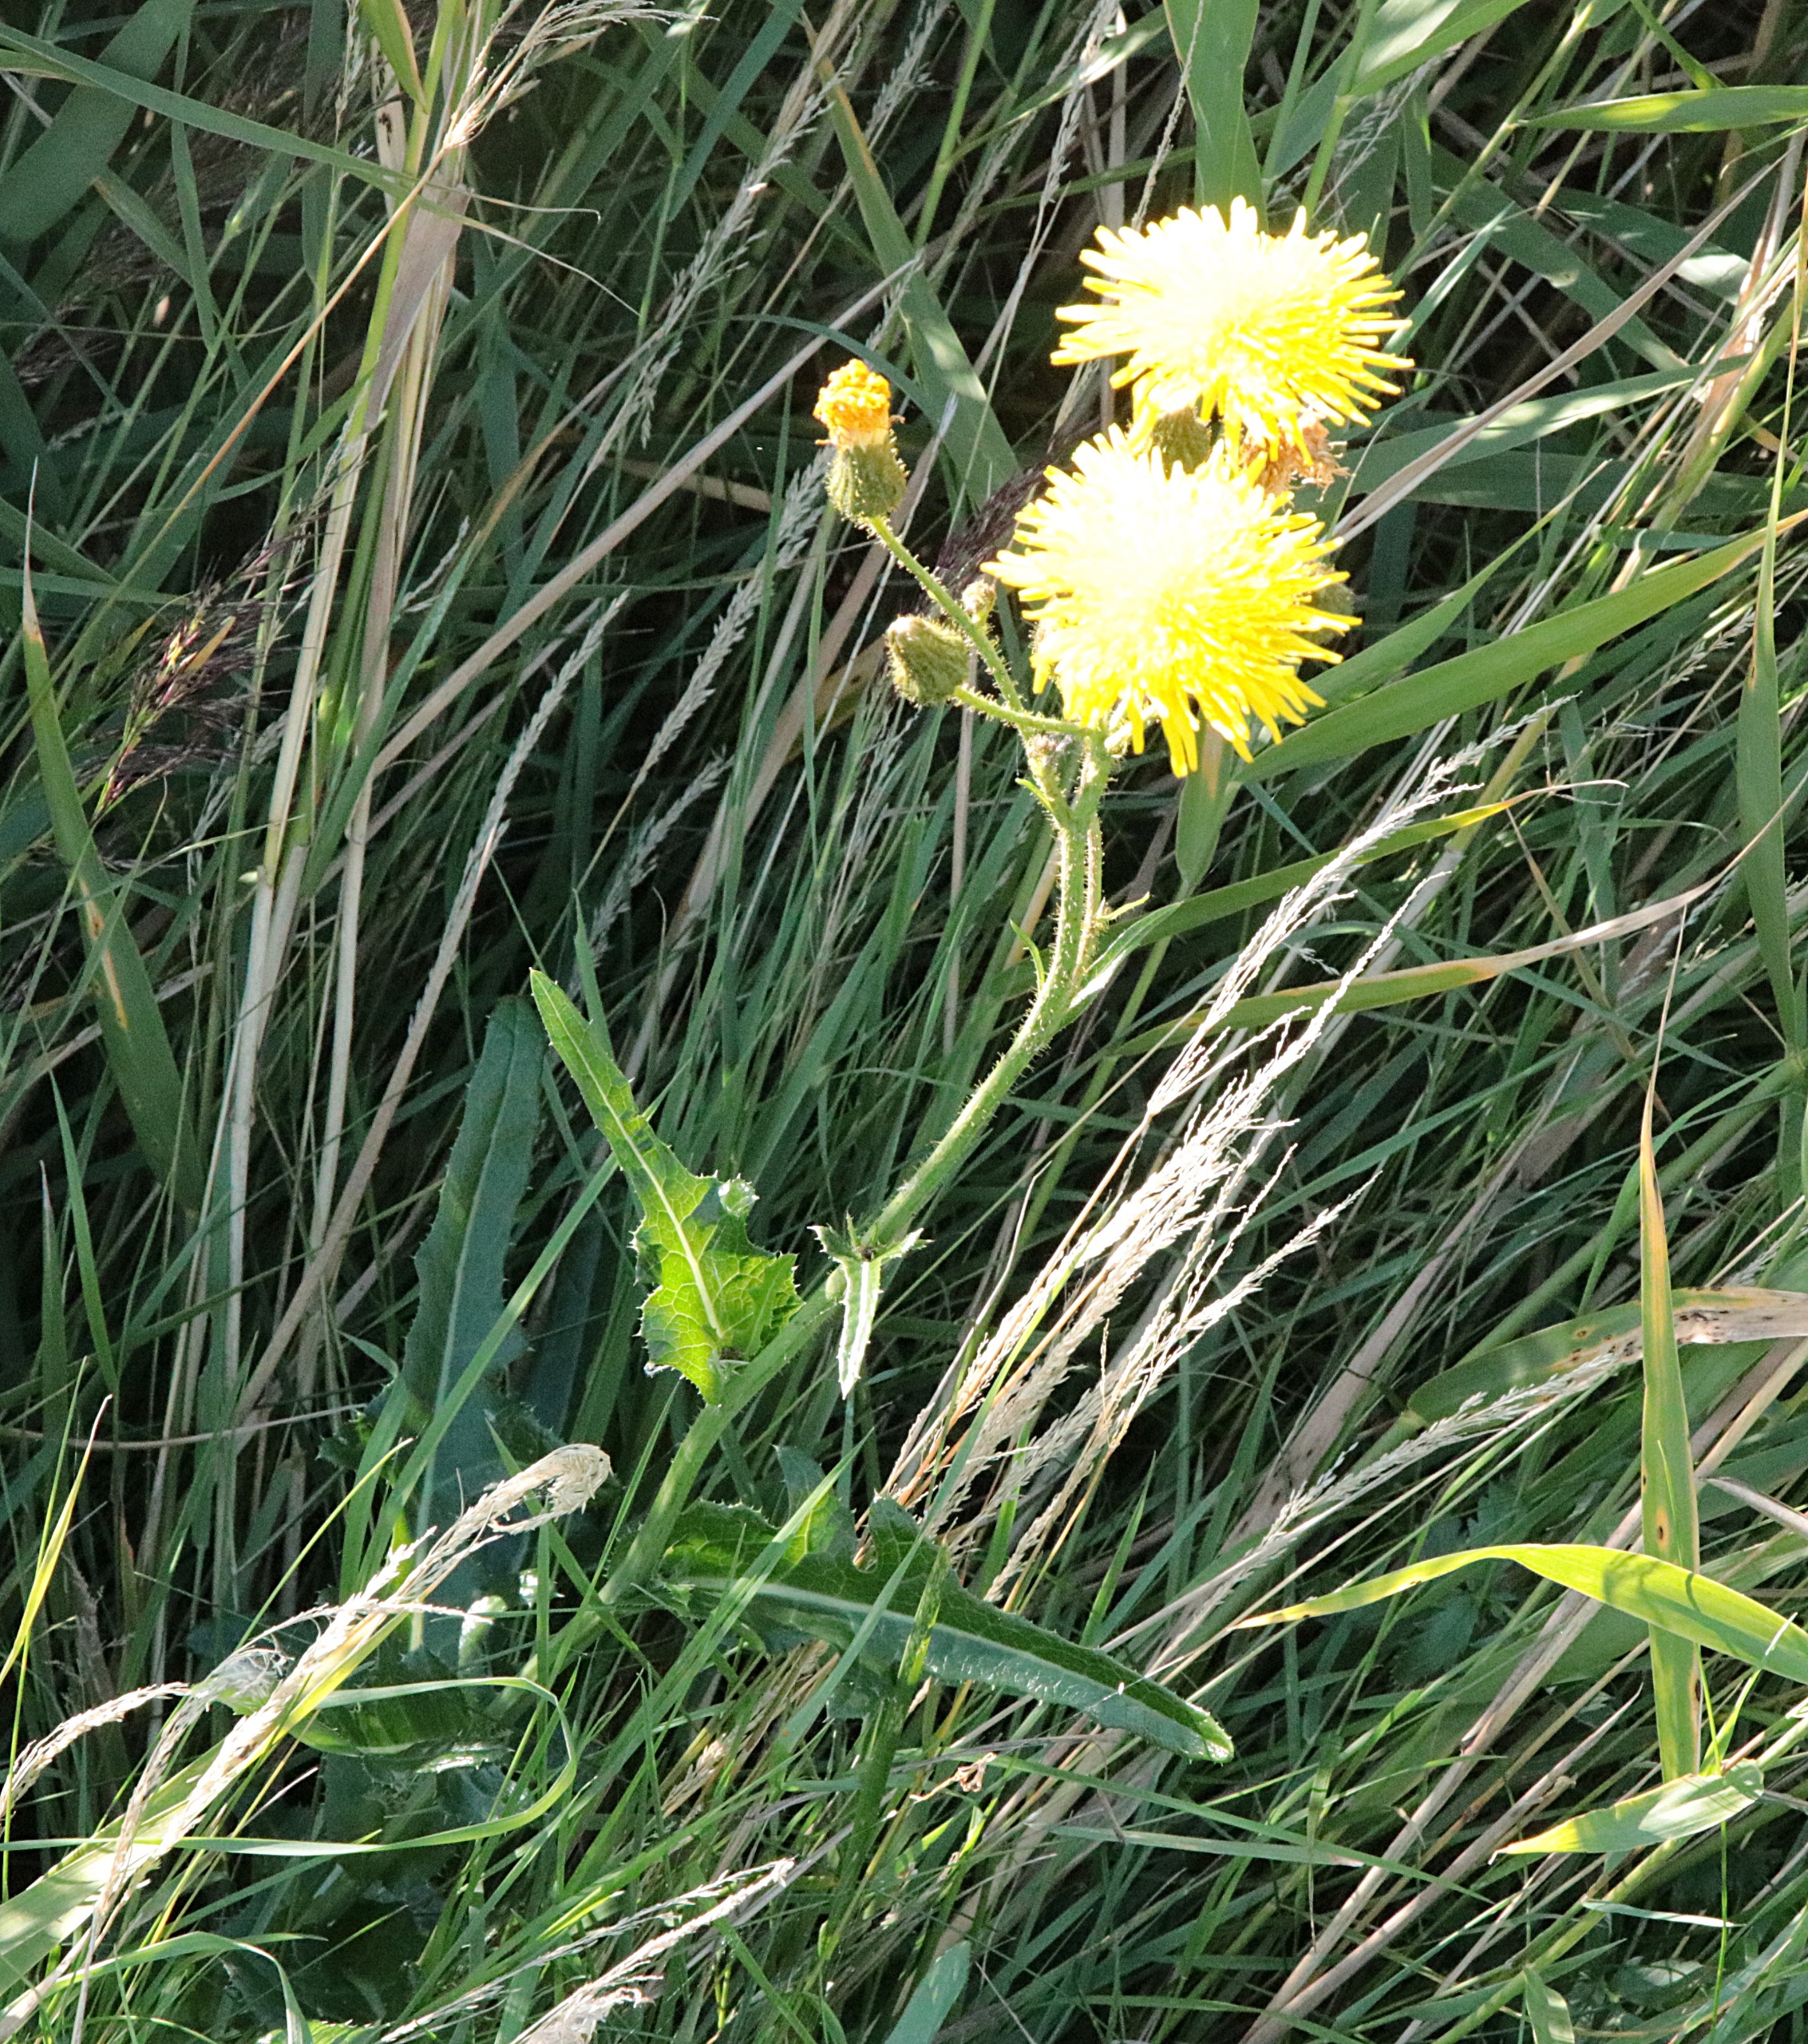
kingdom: Plantae
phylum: Tracheophyta
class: Magnoliopsida
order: Asterales
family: Asteraceae
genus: Sonchus
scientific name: Sonchus arvensis
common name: Ager-svinemælk
